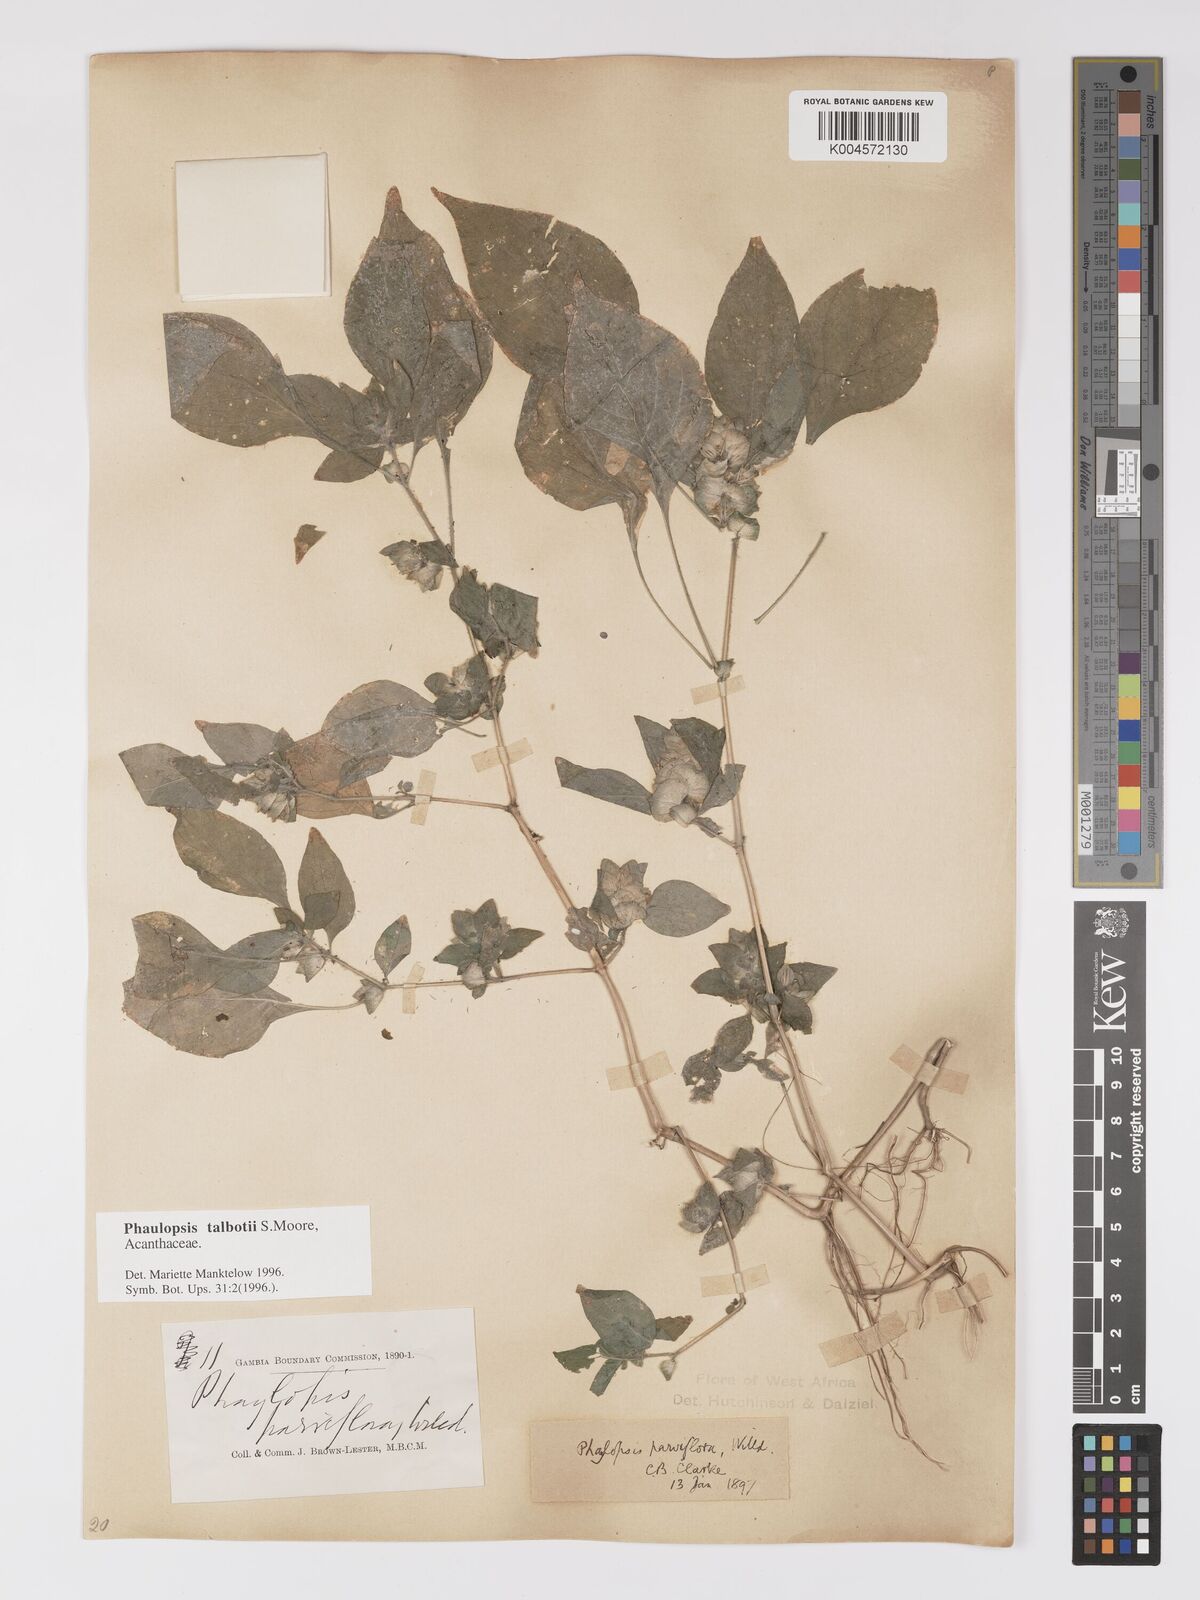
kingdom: Plantae
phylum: Tracheophyta
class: Magnoliopsida
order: Lamiales
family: Acanthaceae
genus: Phaulopsis
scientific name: Phaulopsis talbotii
